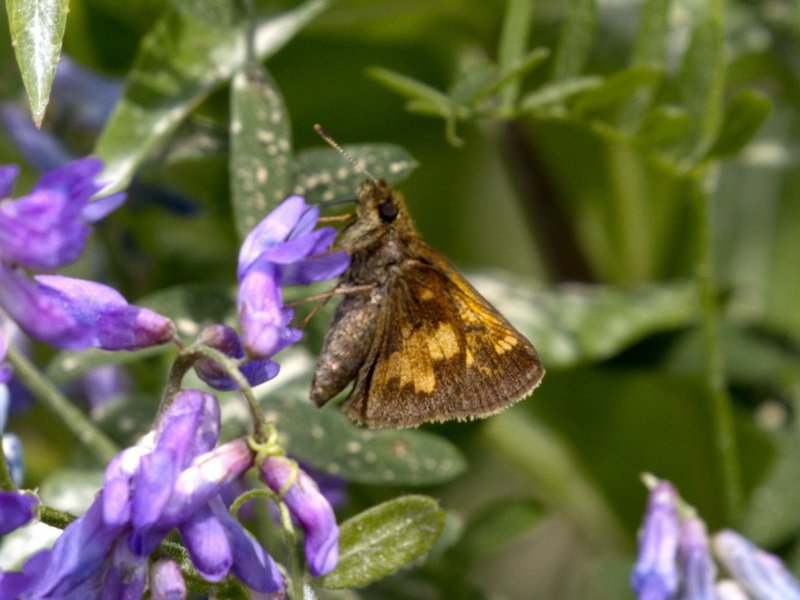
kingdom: Animalia
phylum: Arthropoda
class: Insecta
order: Lepidoptera
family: Hesperiidae
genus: Lon
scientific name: Lon hobomok
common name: Hobomok Skipper
